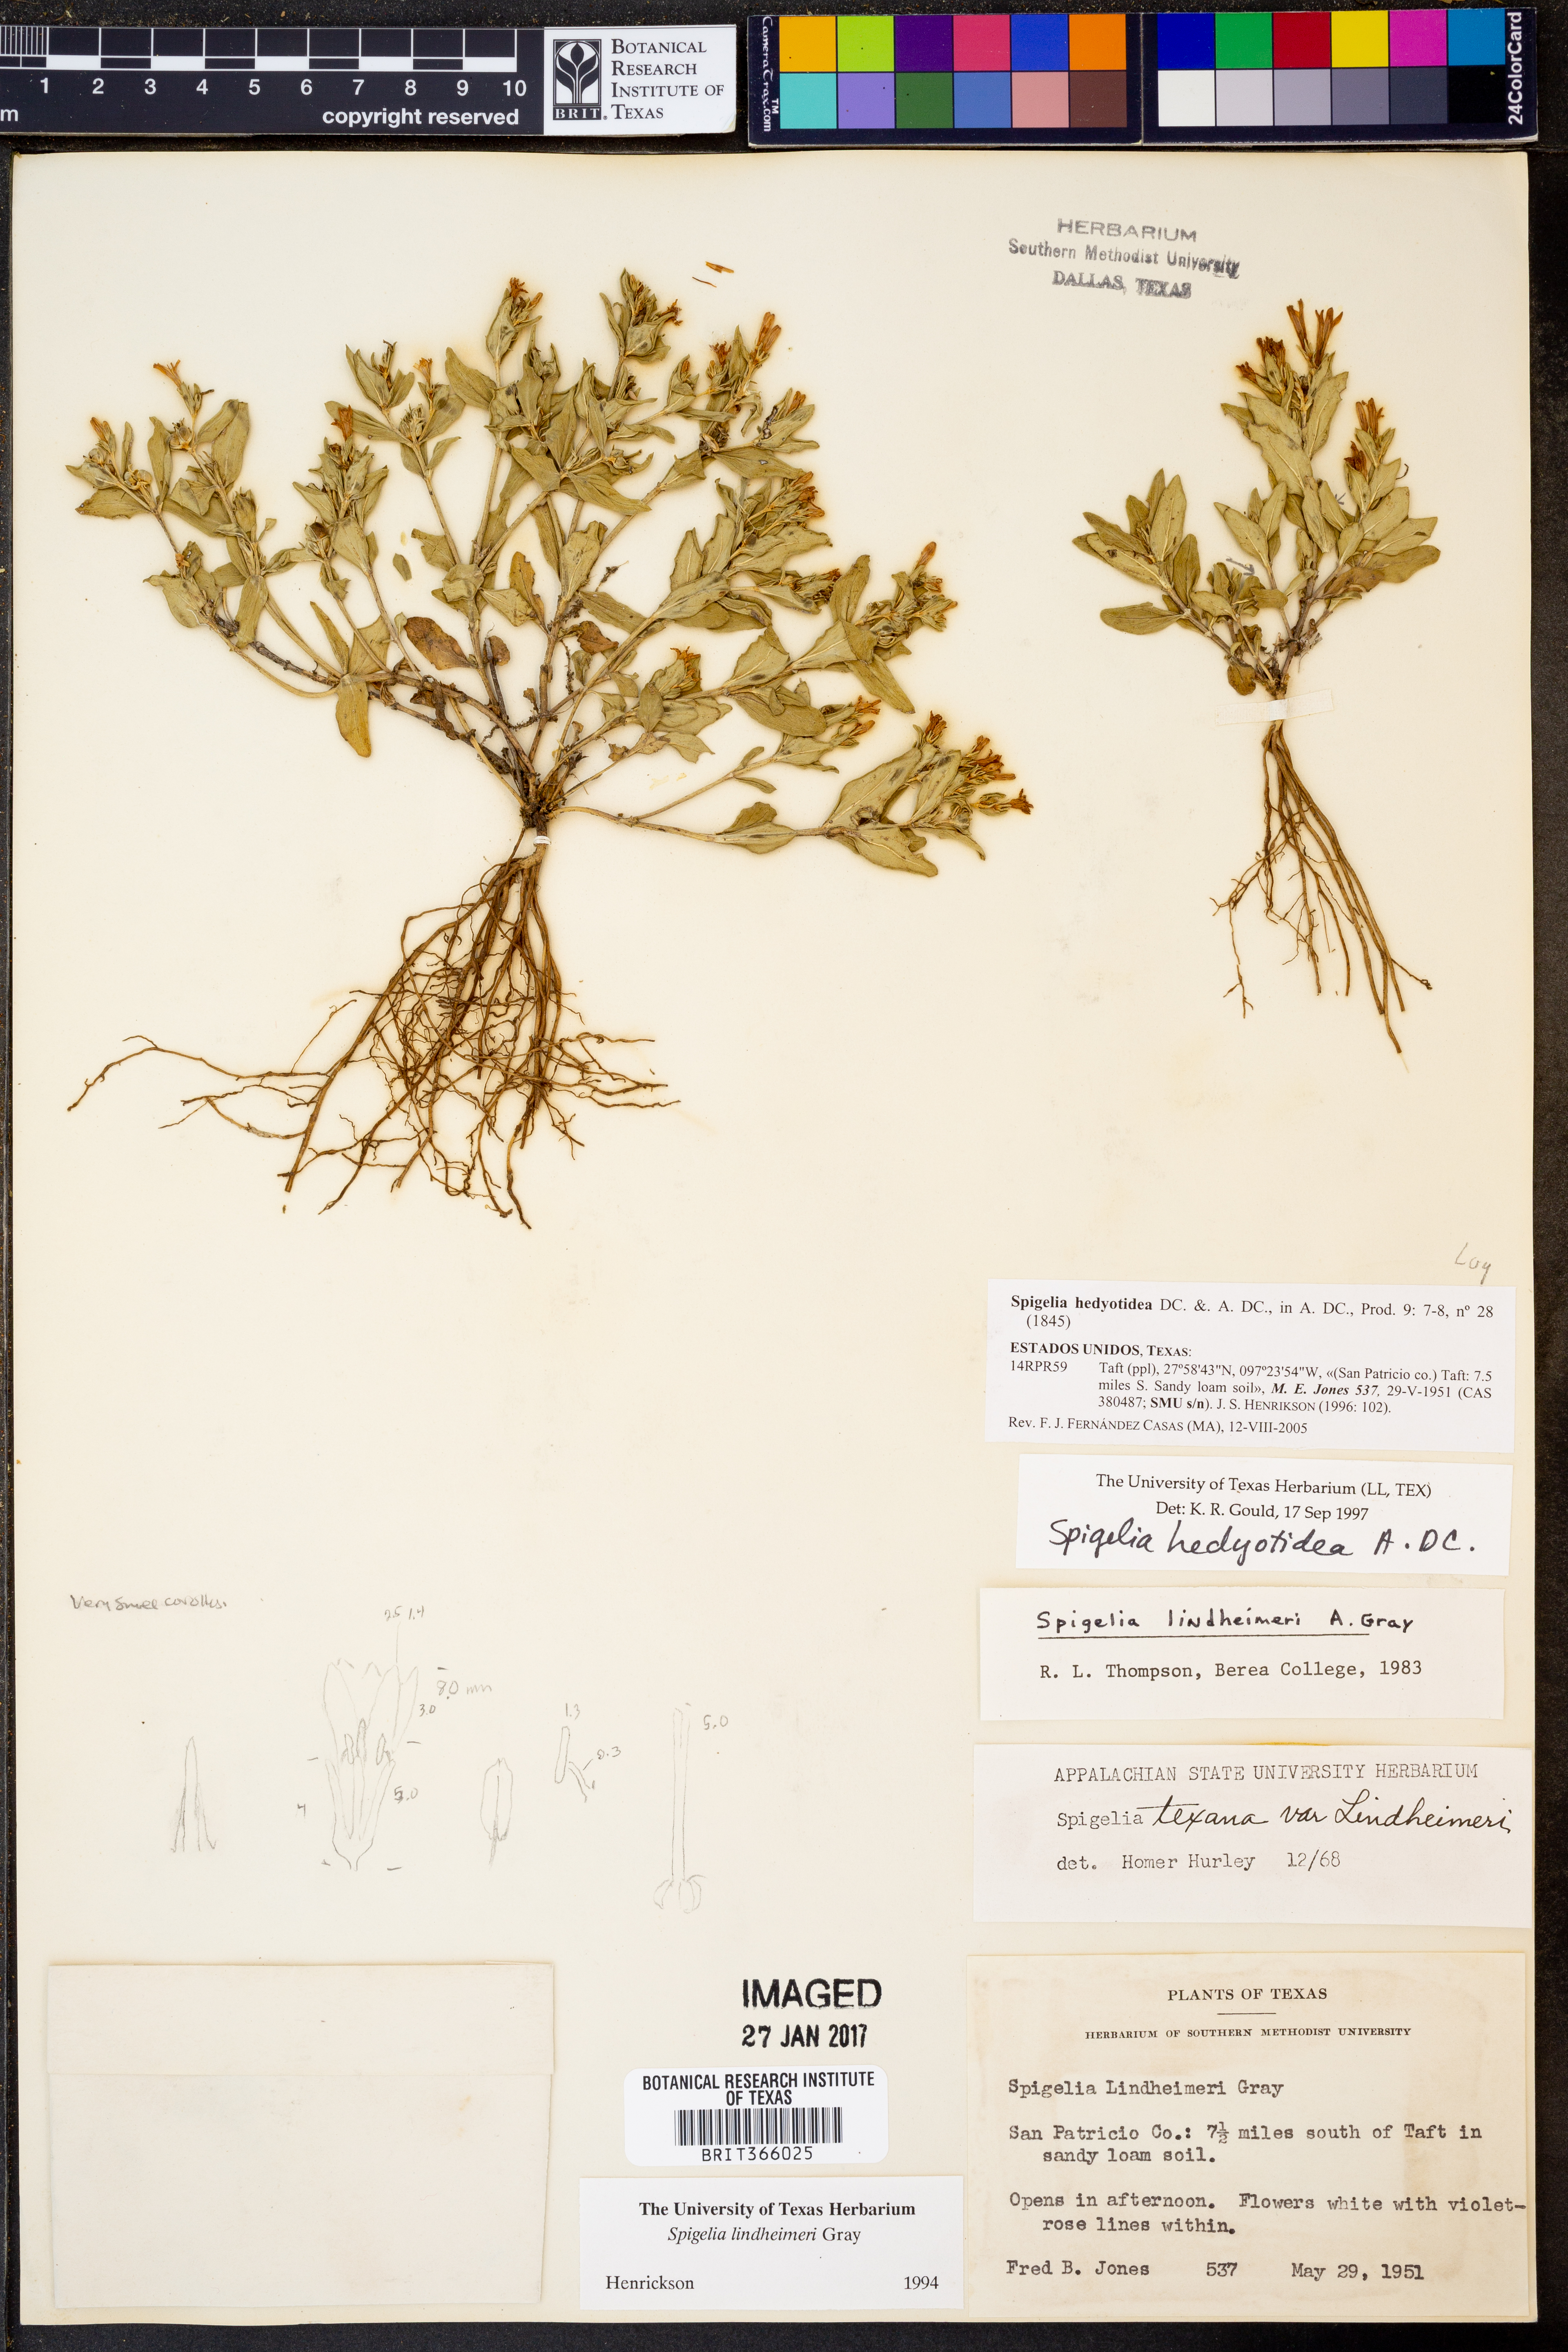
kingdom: Plantae
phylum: Tracheophyta
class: Magnoliopsida
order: Gentianales
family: Loganiaceae
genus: Spigelia
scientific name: Spigelia hedyotidea
